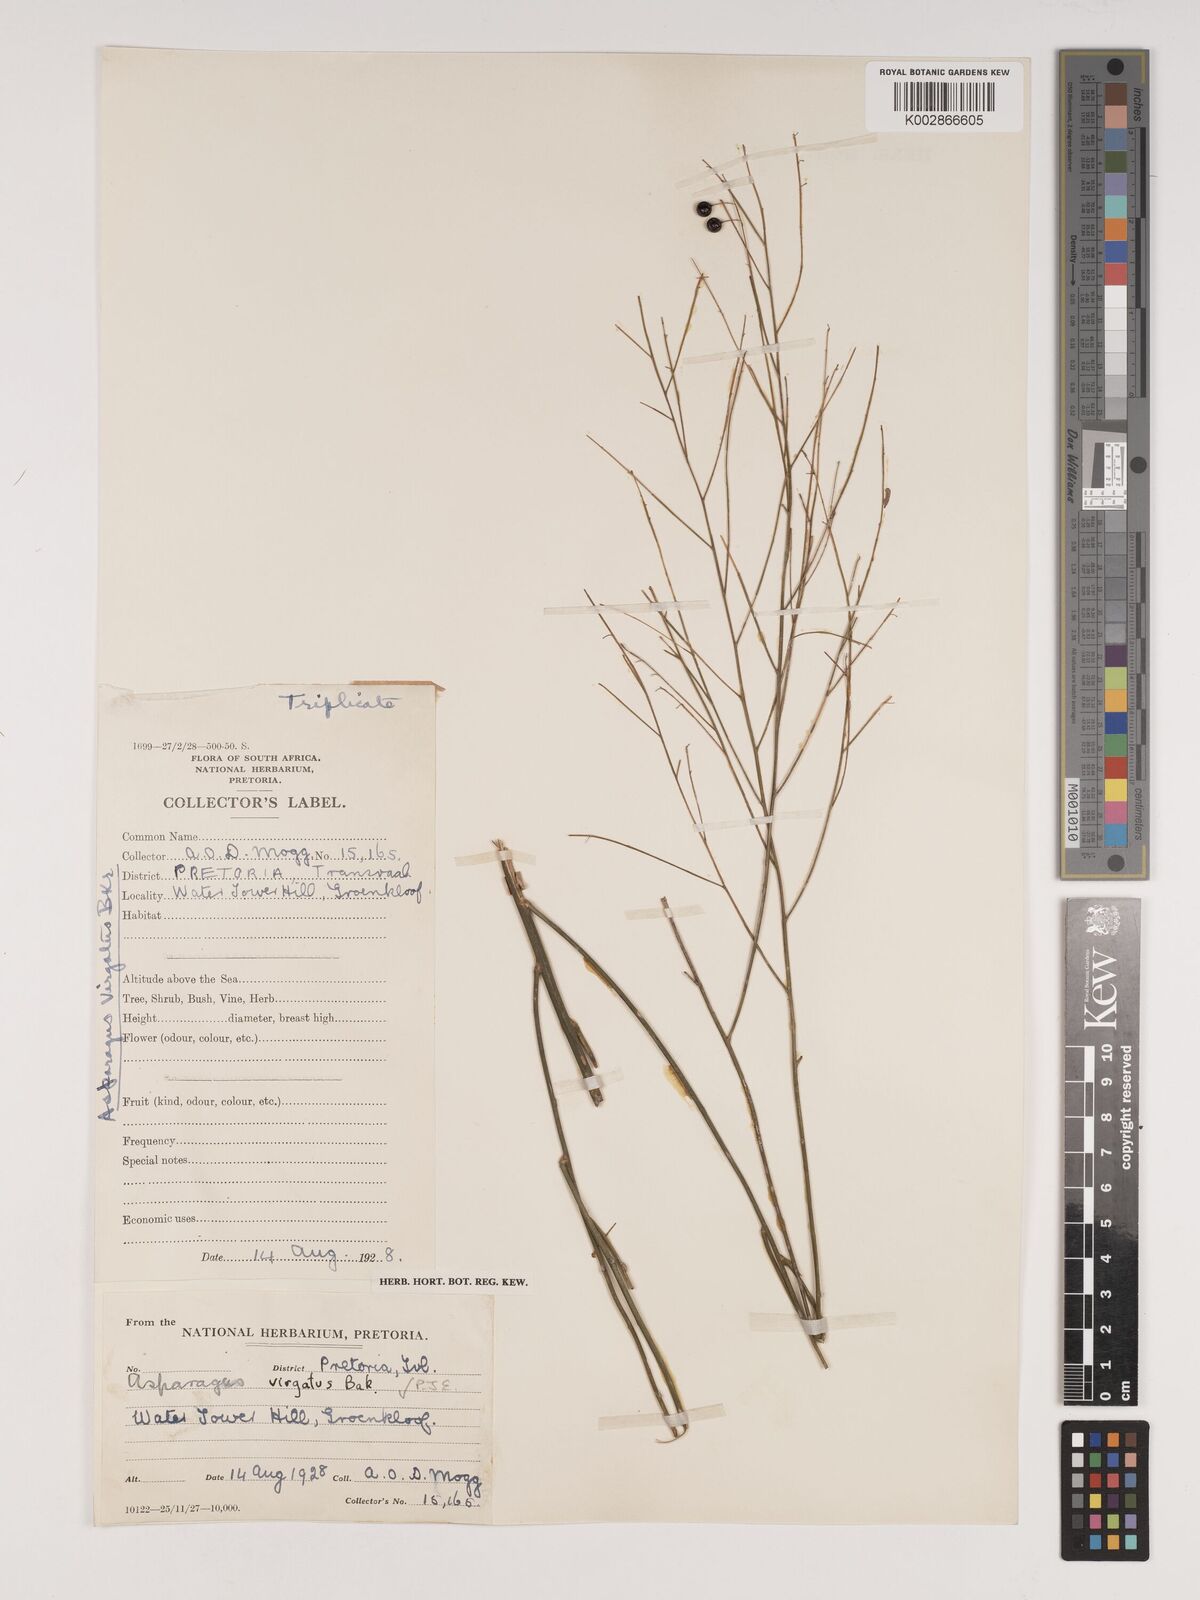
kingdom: Plantae
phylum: Tracheophyta
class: Liliopsida
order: Asparagales
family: Asparagaceae
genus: Asparagus
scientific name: Asparagus virgatus
